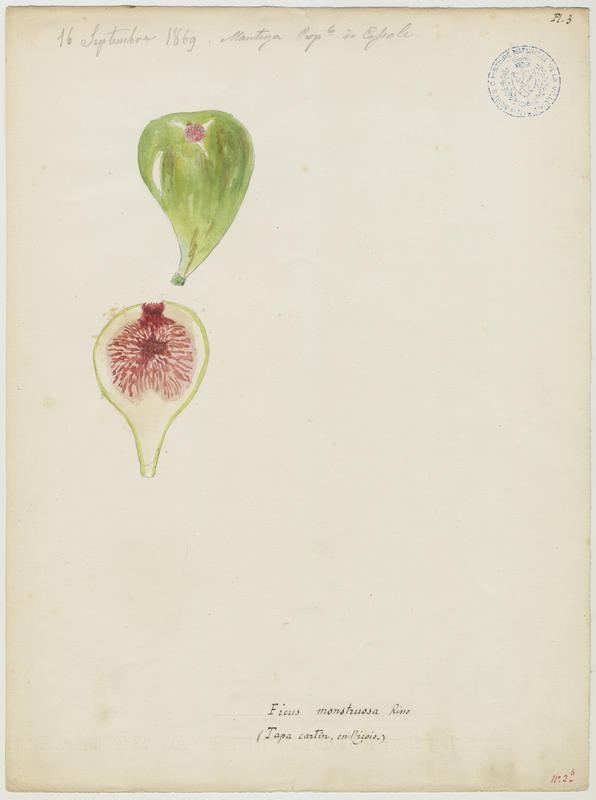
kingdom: Plantae
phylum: Tracheophyta
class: Magnoliopsida
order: Rosales
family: Moraceae
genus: Ficus
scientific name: Ficus carica
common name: Fig
